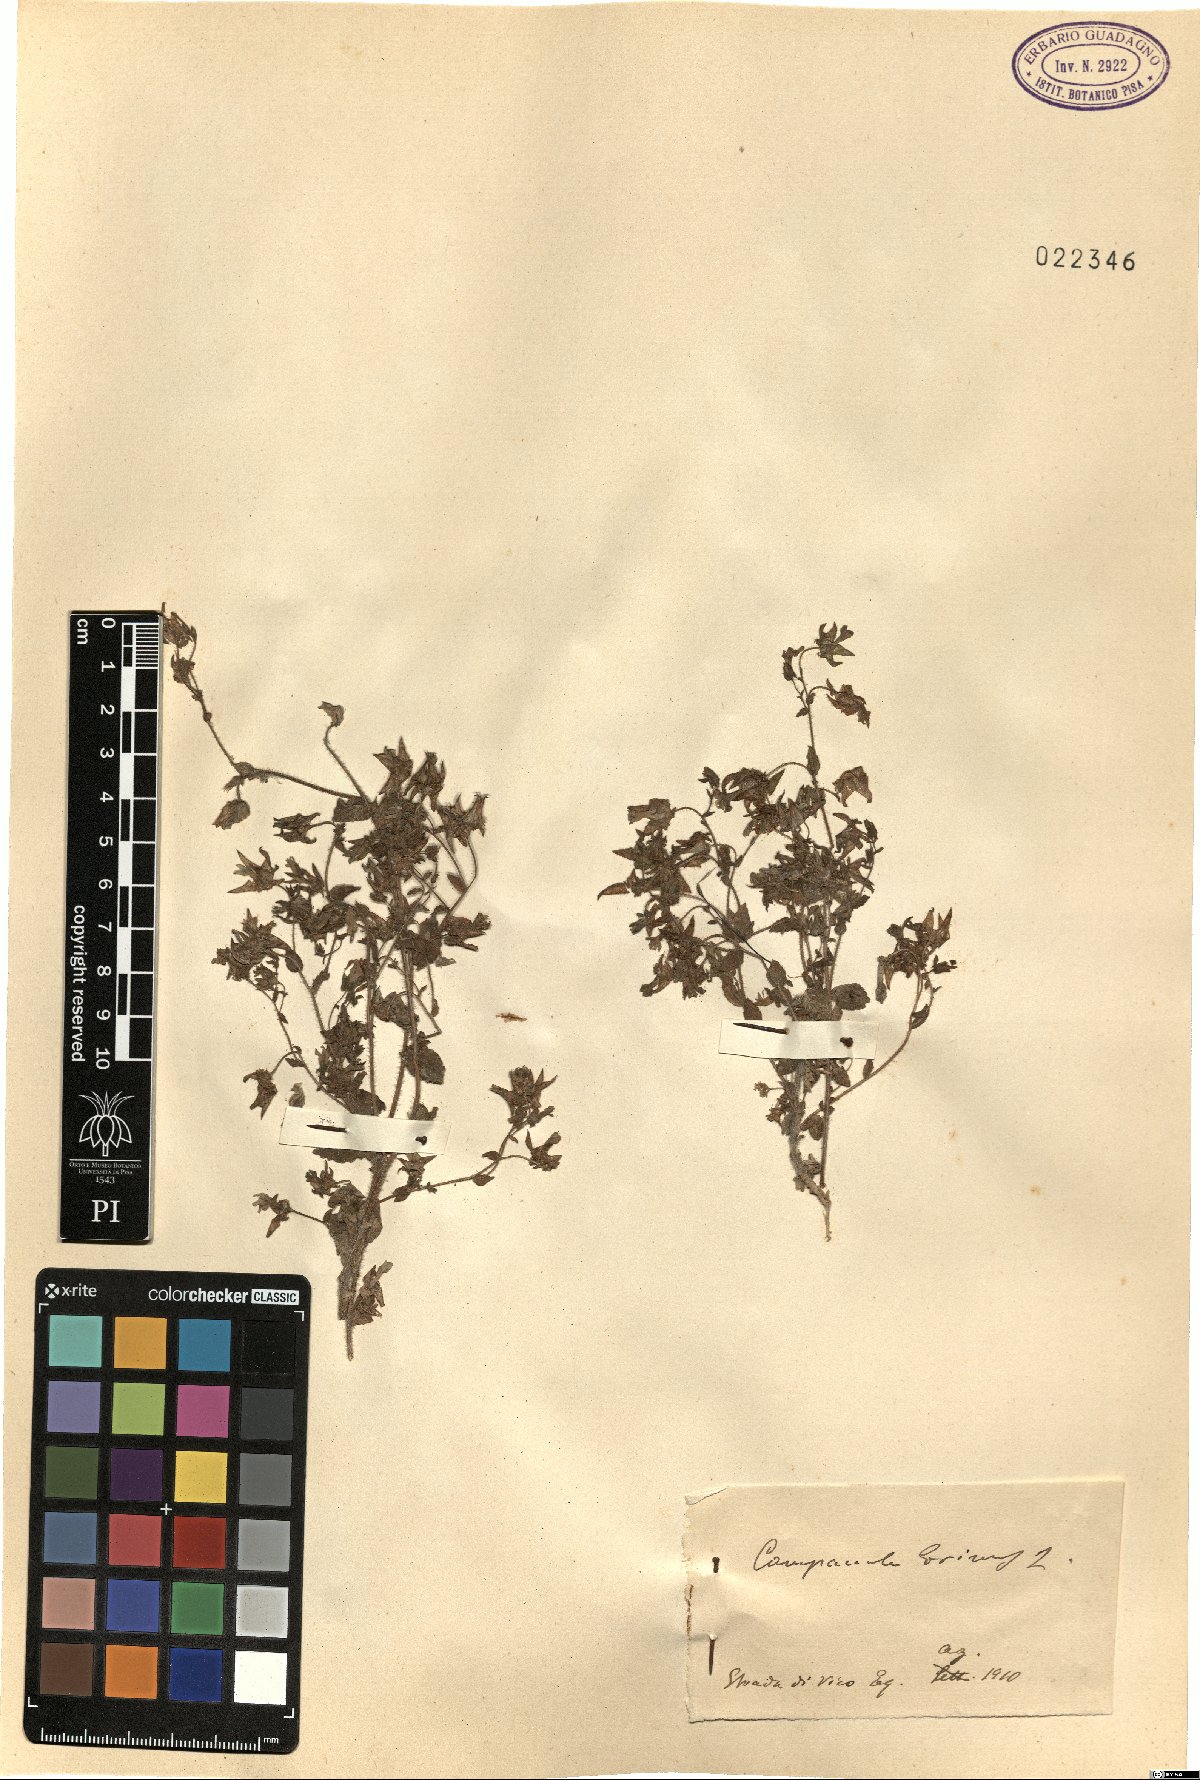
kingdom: Plantae
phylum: Tracheophyta
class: Magnoliopsida
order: Asterales
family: Campanulaceae
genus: Campanula
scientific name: Campanula erinus
